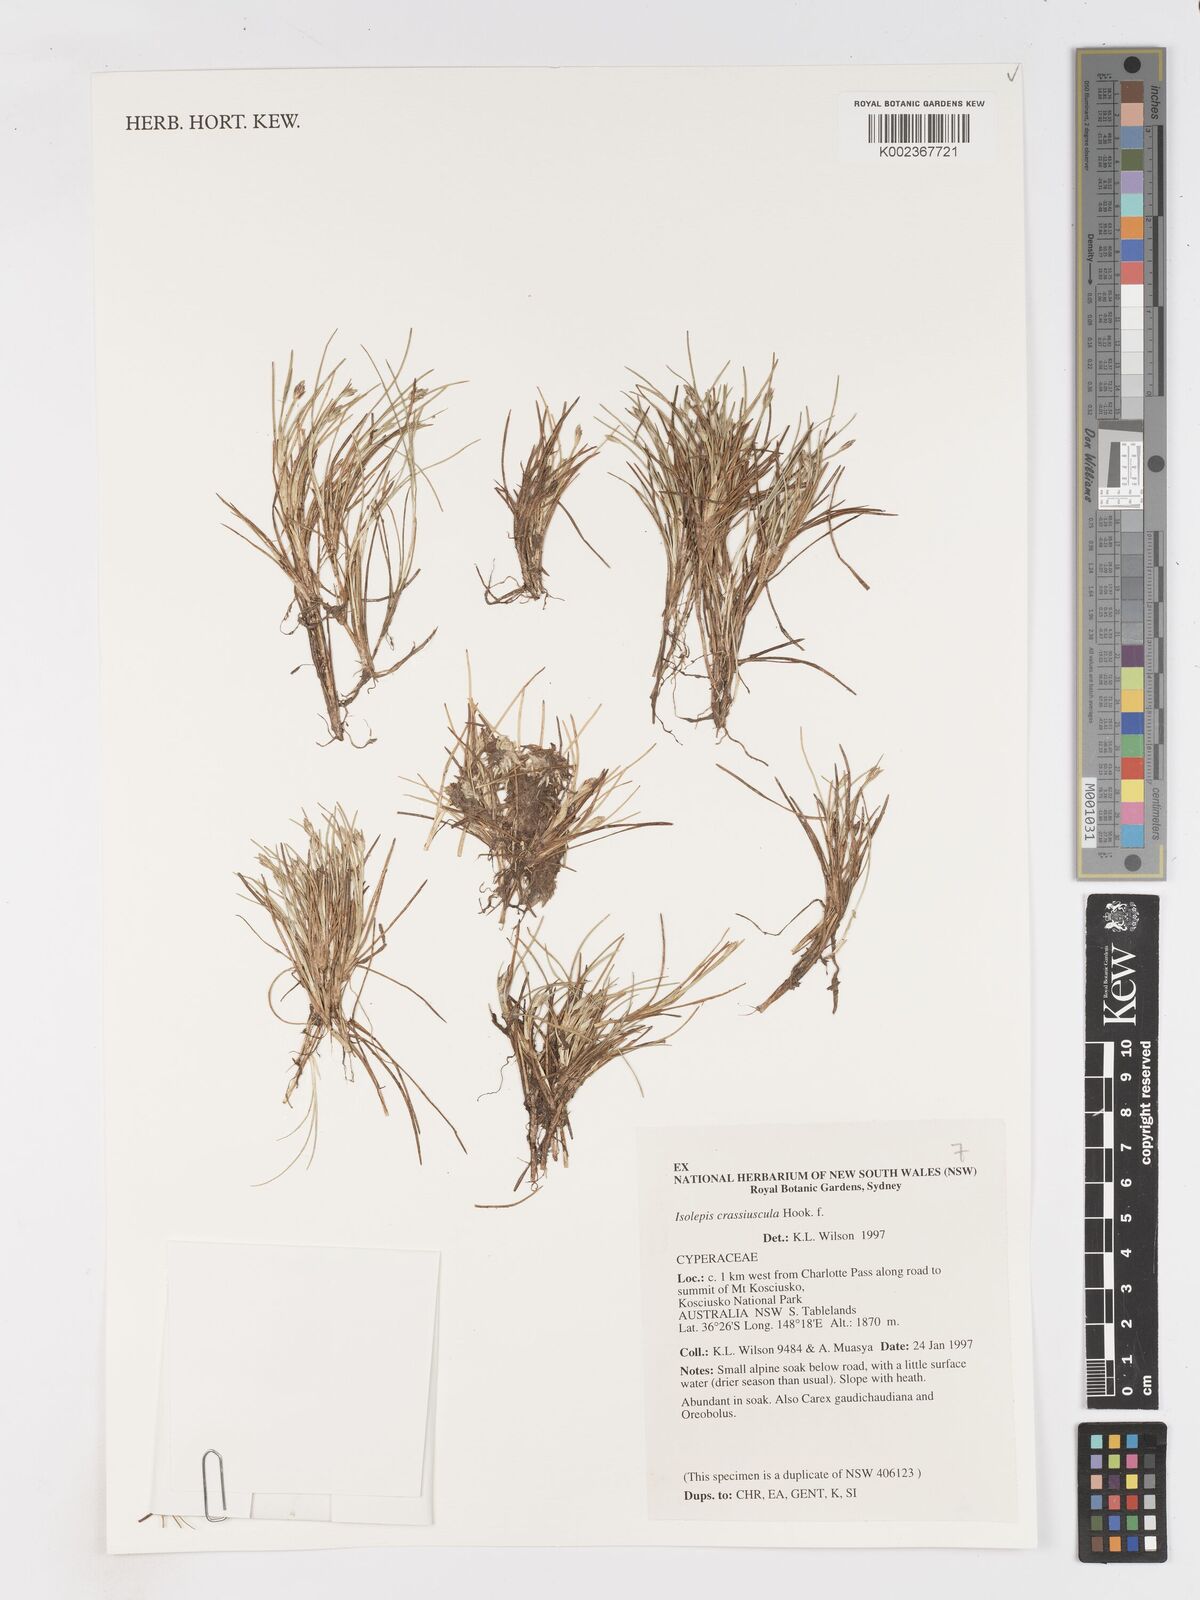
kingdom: Plantae
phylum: Tracheophyta
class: Liliopsida
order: Poales
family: Cyperaceae
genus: Isolepis
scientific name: Isolepis crassiuscula
